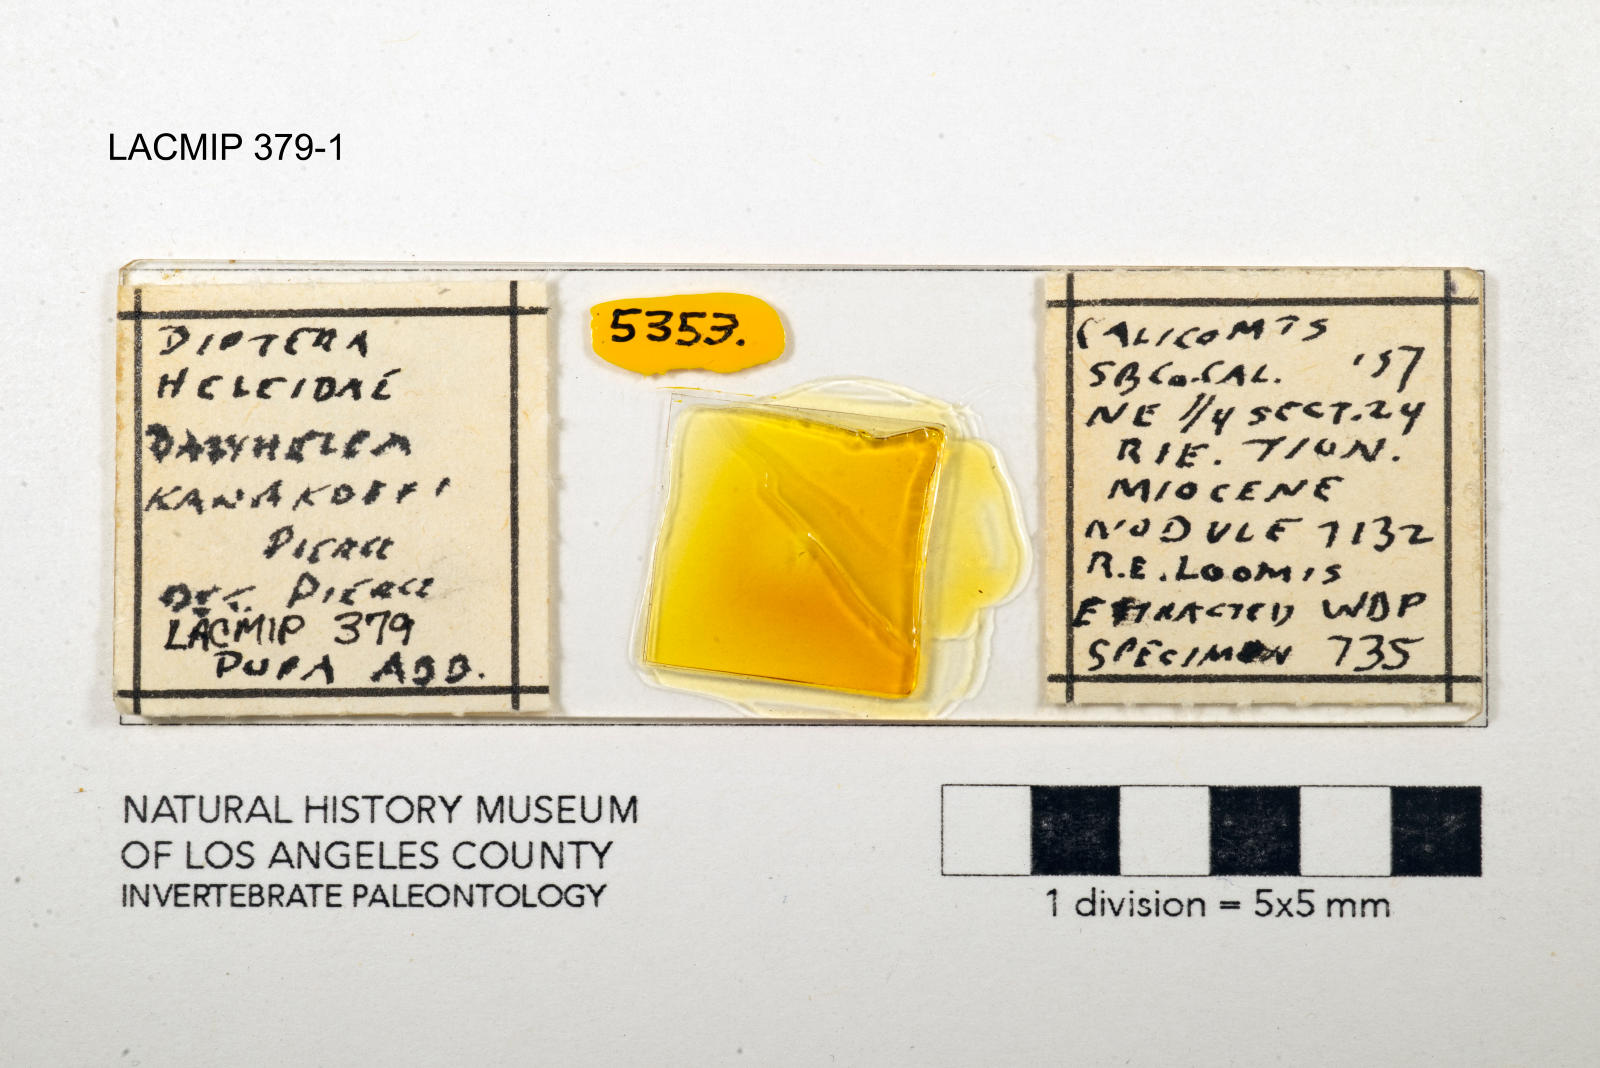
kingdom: Animalia
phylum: Arthropoda
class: Insecta
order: Diptera
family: Ceratopogonidae
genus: Dasyhelea
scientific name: Dasyhelea kanakoffi
